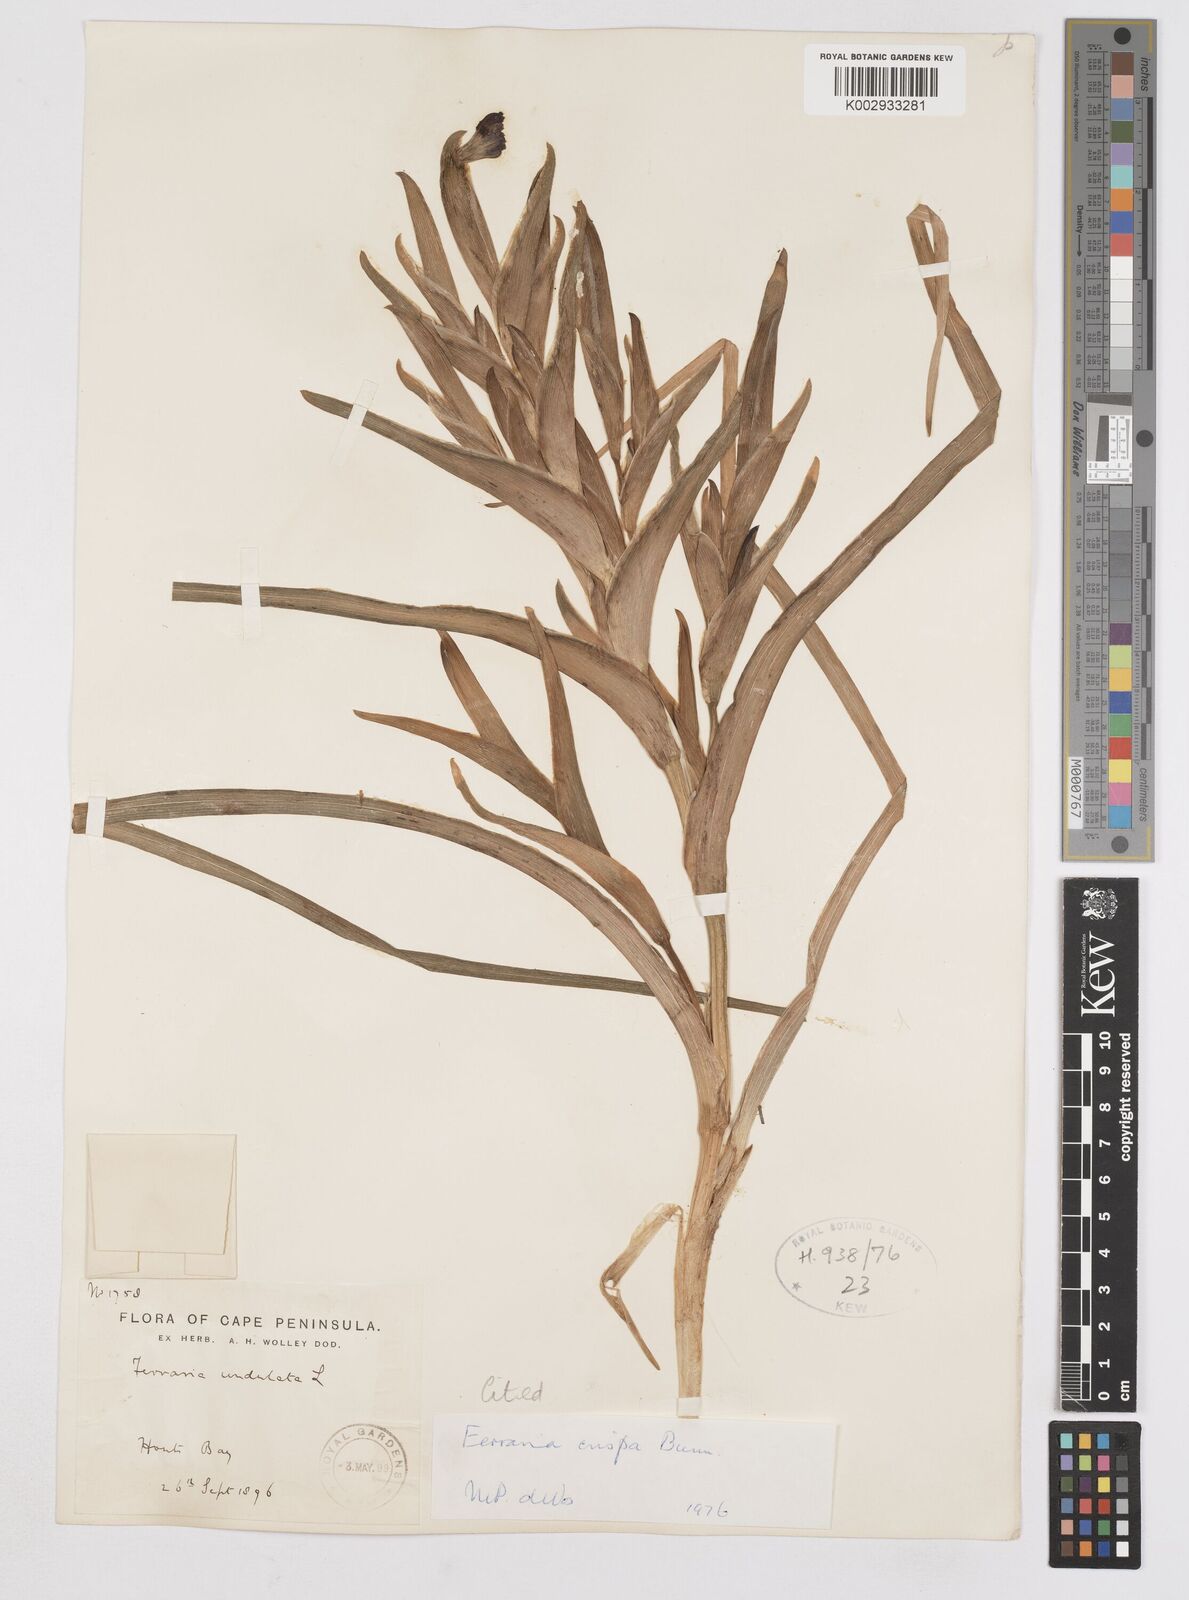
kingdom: Plantae
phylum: Tracheophyta
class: Liliopsida
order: Asparagales
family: Iridaceae
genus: Ferraria
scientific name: Ferraria crispa
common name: Black-flag
